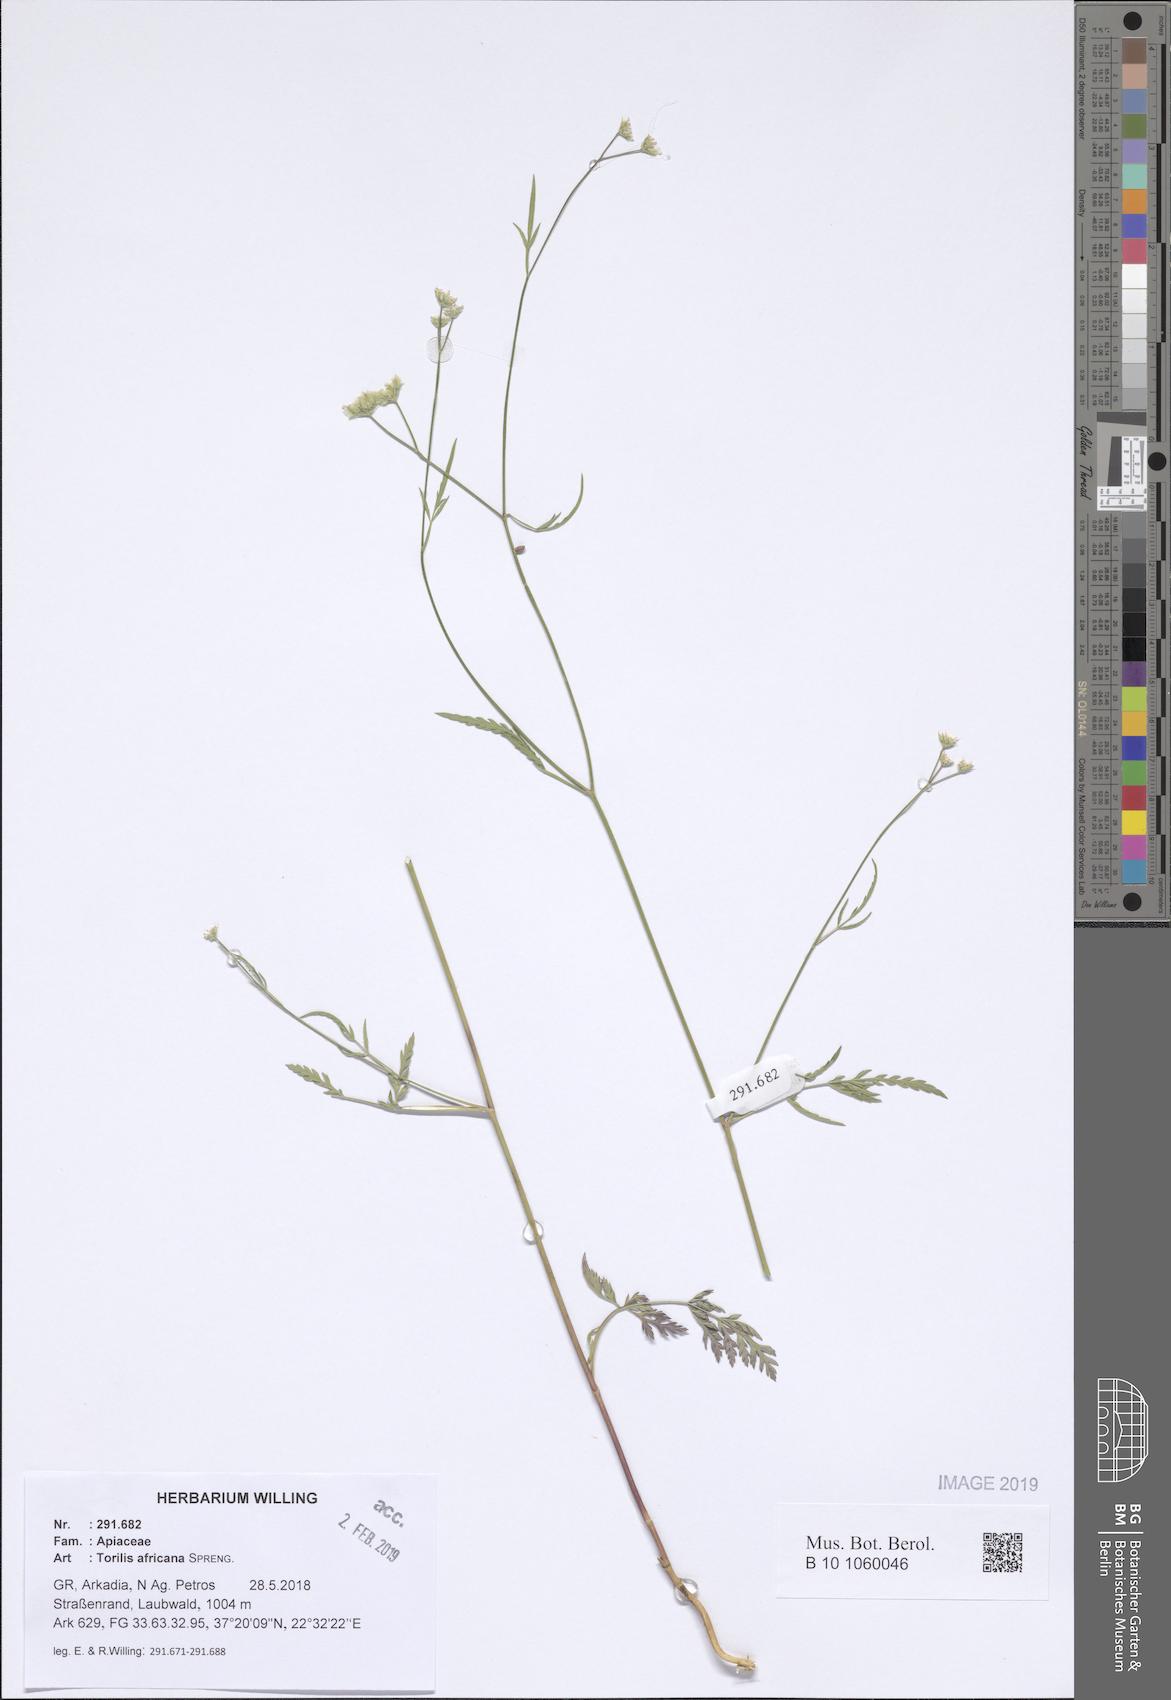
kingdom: Plantae
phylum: Tracheophyta
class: Magnoliopsida
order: Apiales
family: Apiaceae
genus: Torilis
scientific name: Torilis africana
